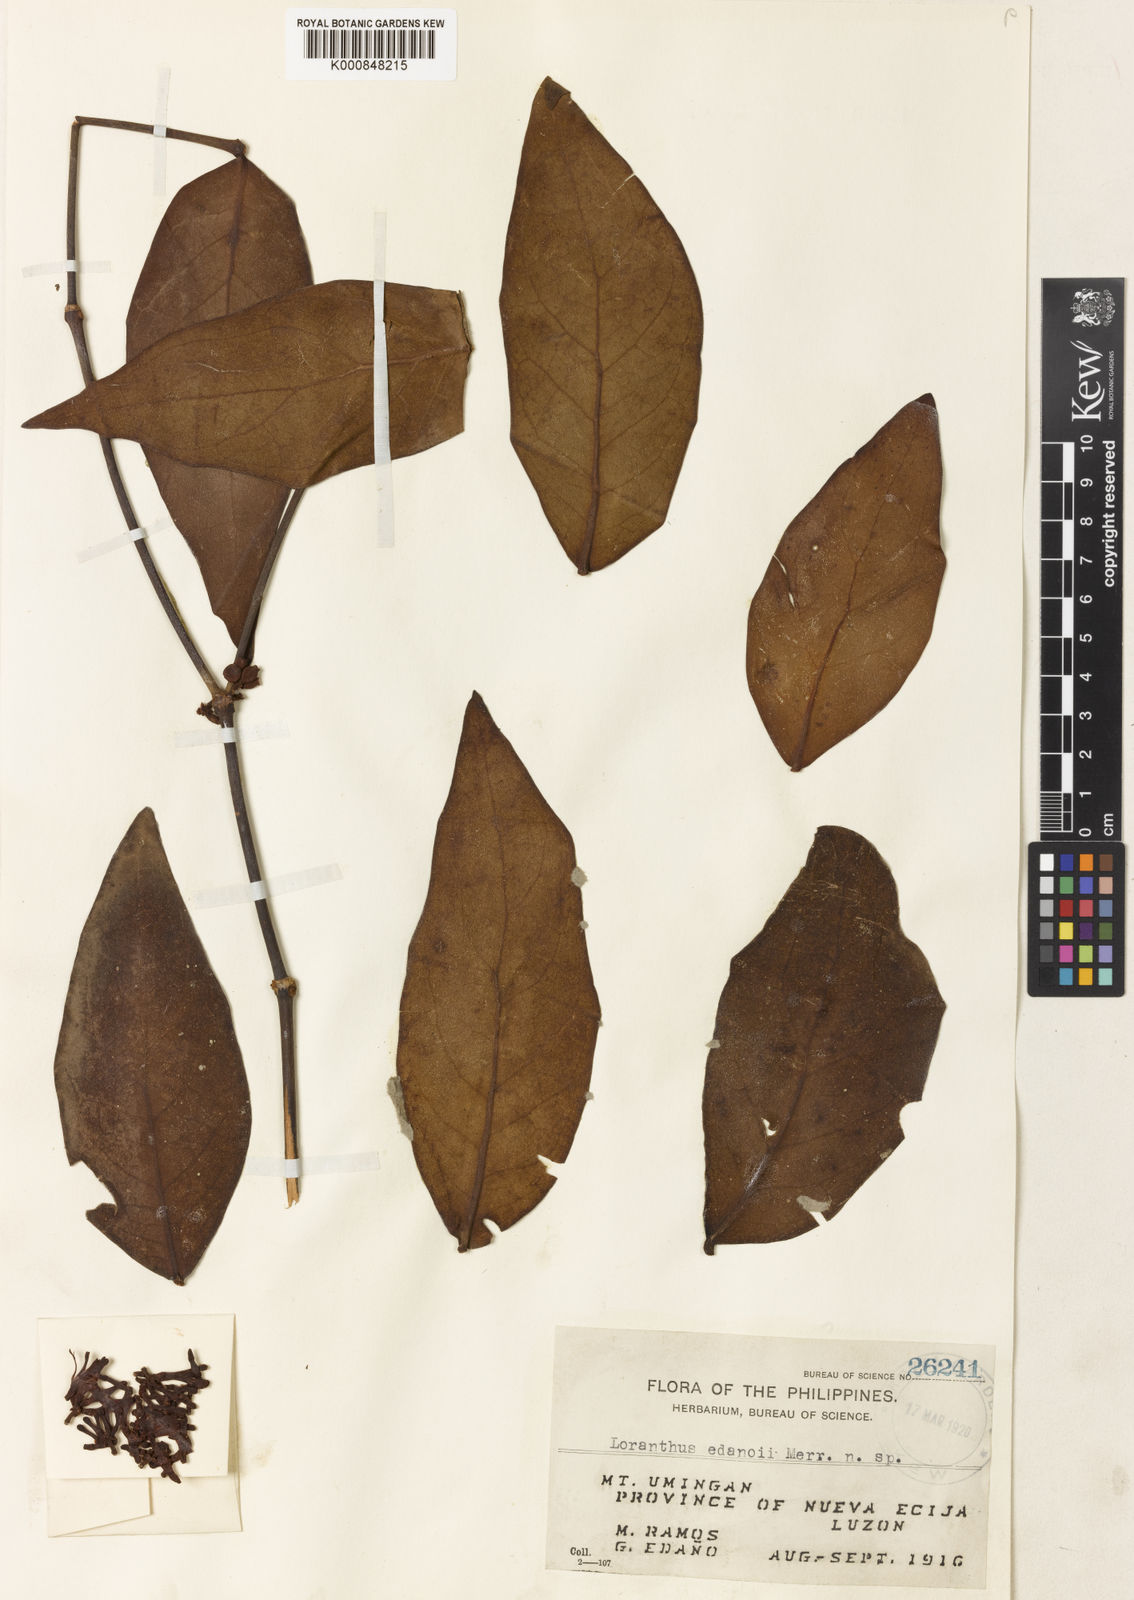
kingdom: Plantae
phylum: Tracheophyta
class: Magnoliopsida
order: Santalales
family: Loranthaceae
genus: Amyema
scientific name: Amyema edanoi
